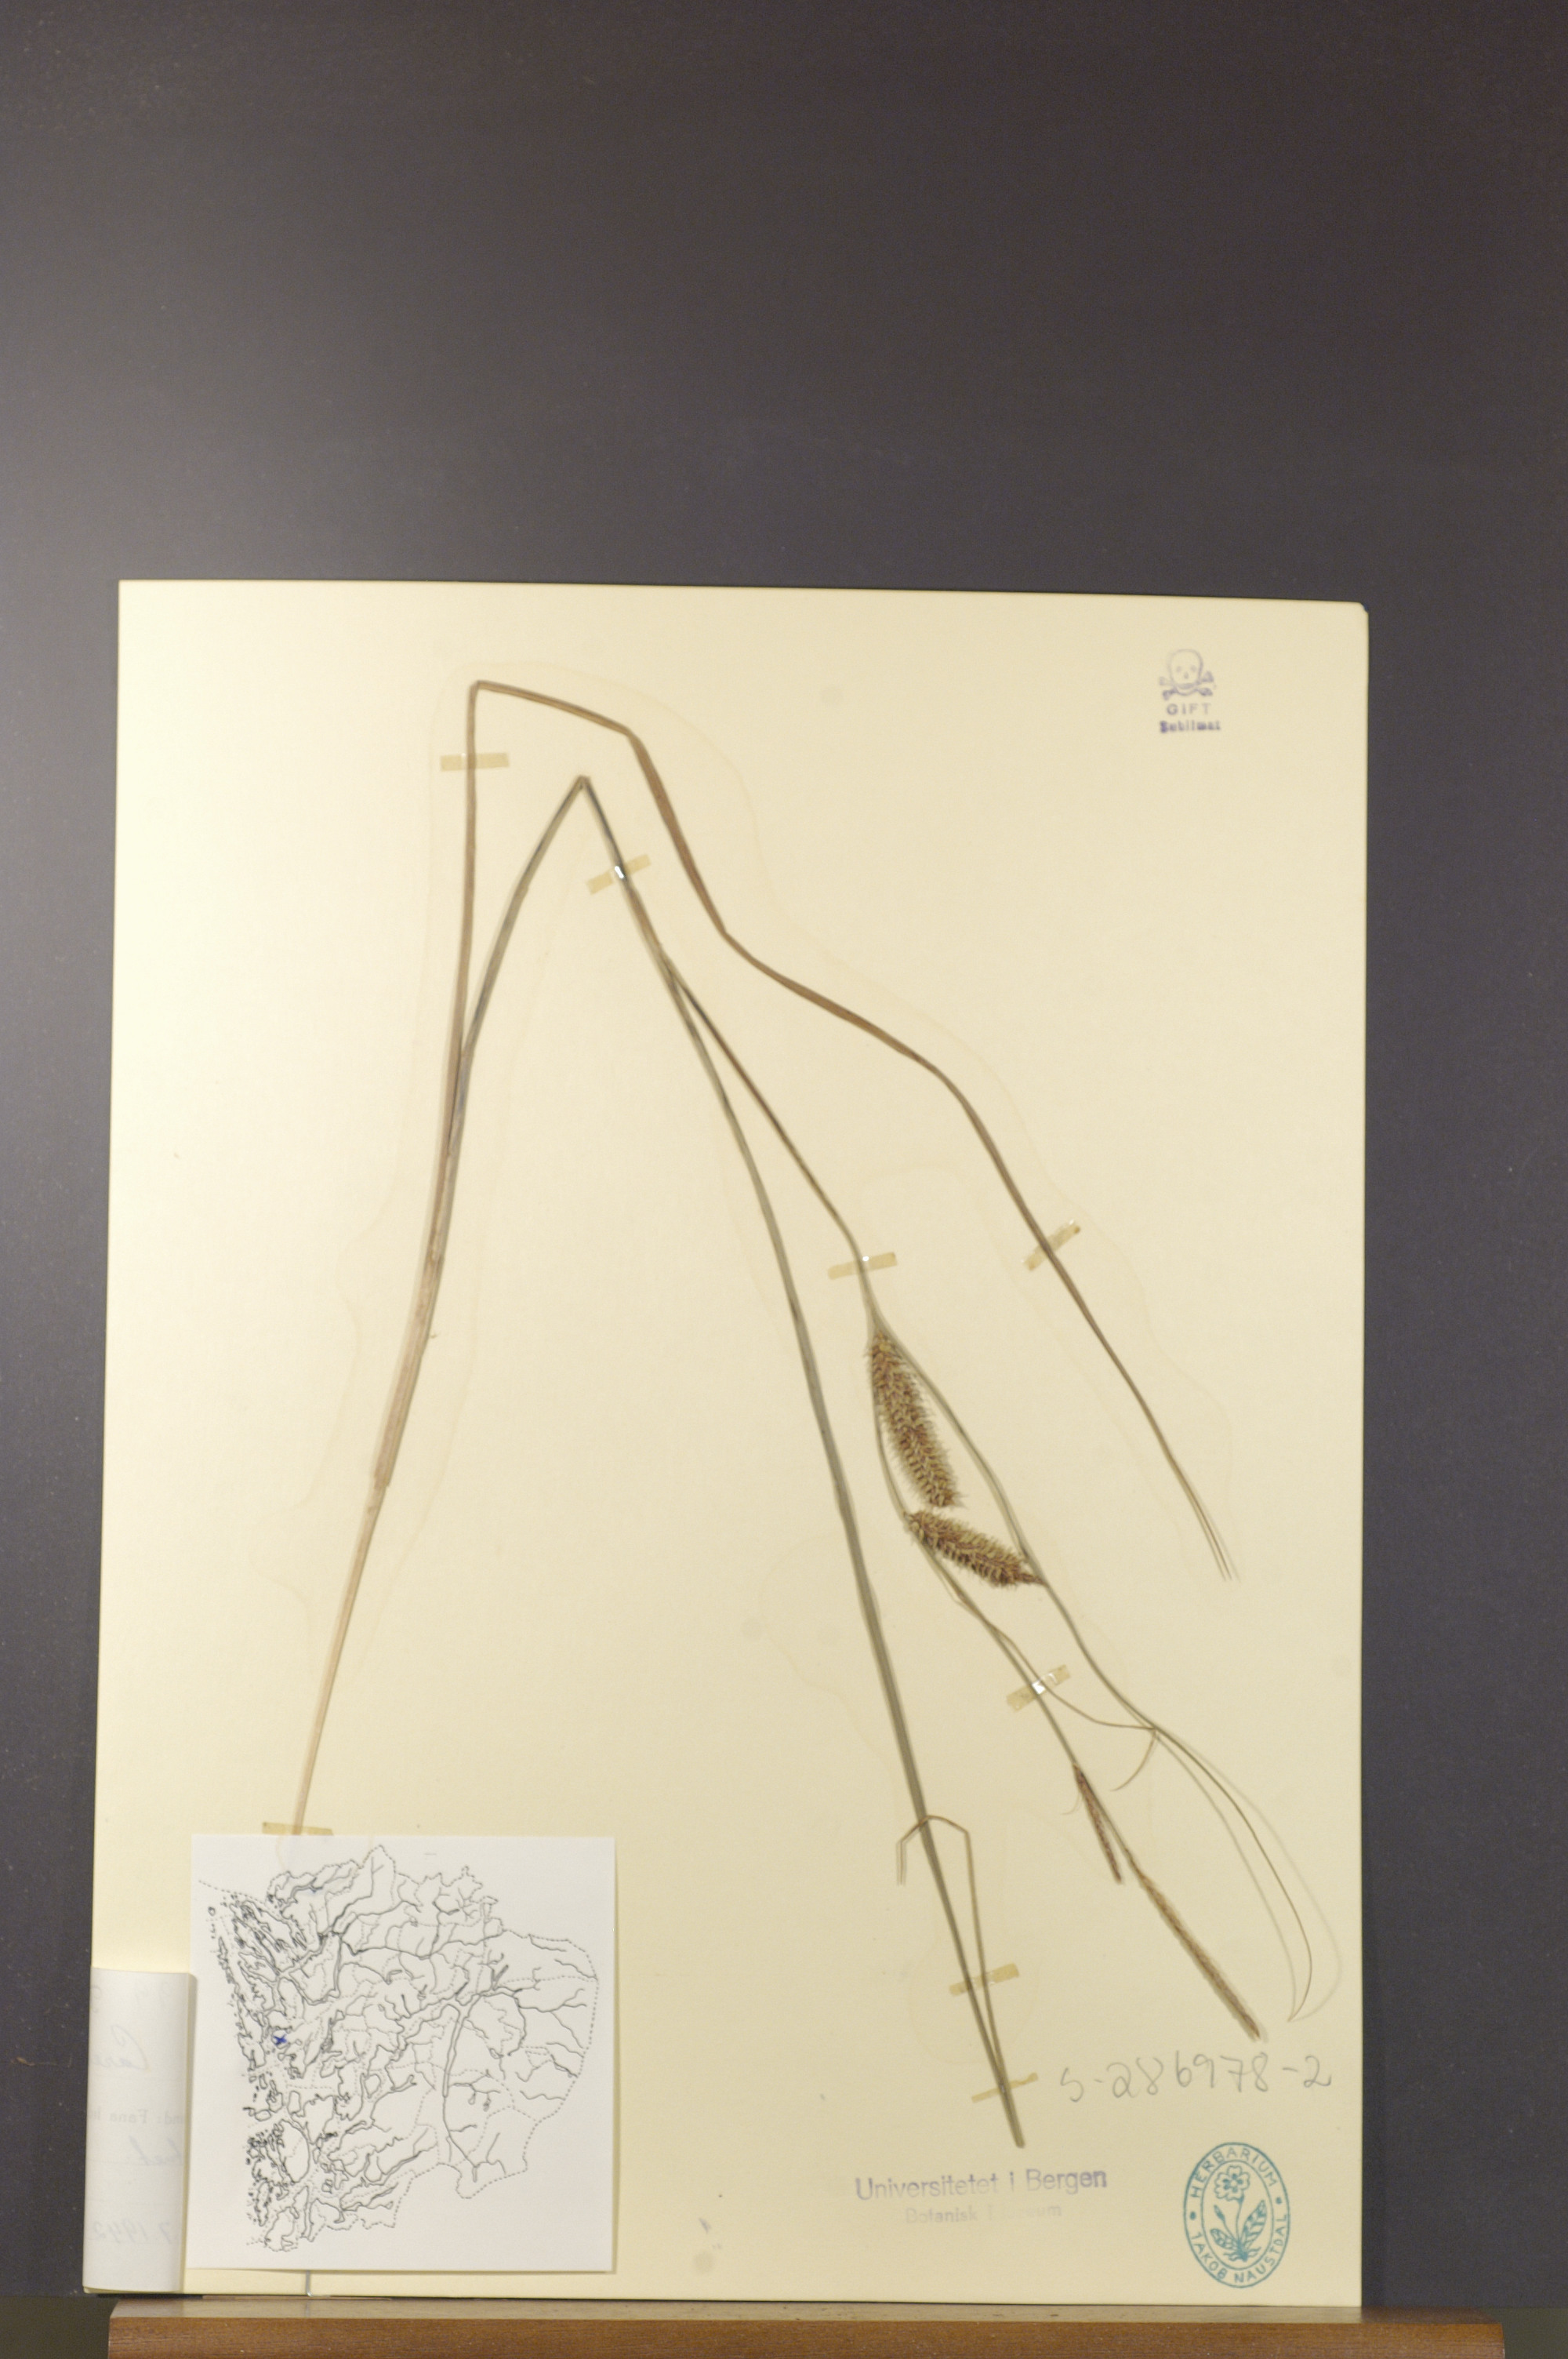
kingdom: Plantae
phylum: Tracheophyta
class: Liliopsida
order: Poales
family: Cyperaceae
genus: Carex
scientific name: Carex rostrata
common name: Bottle sedge
